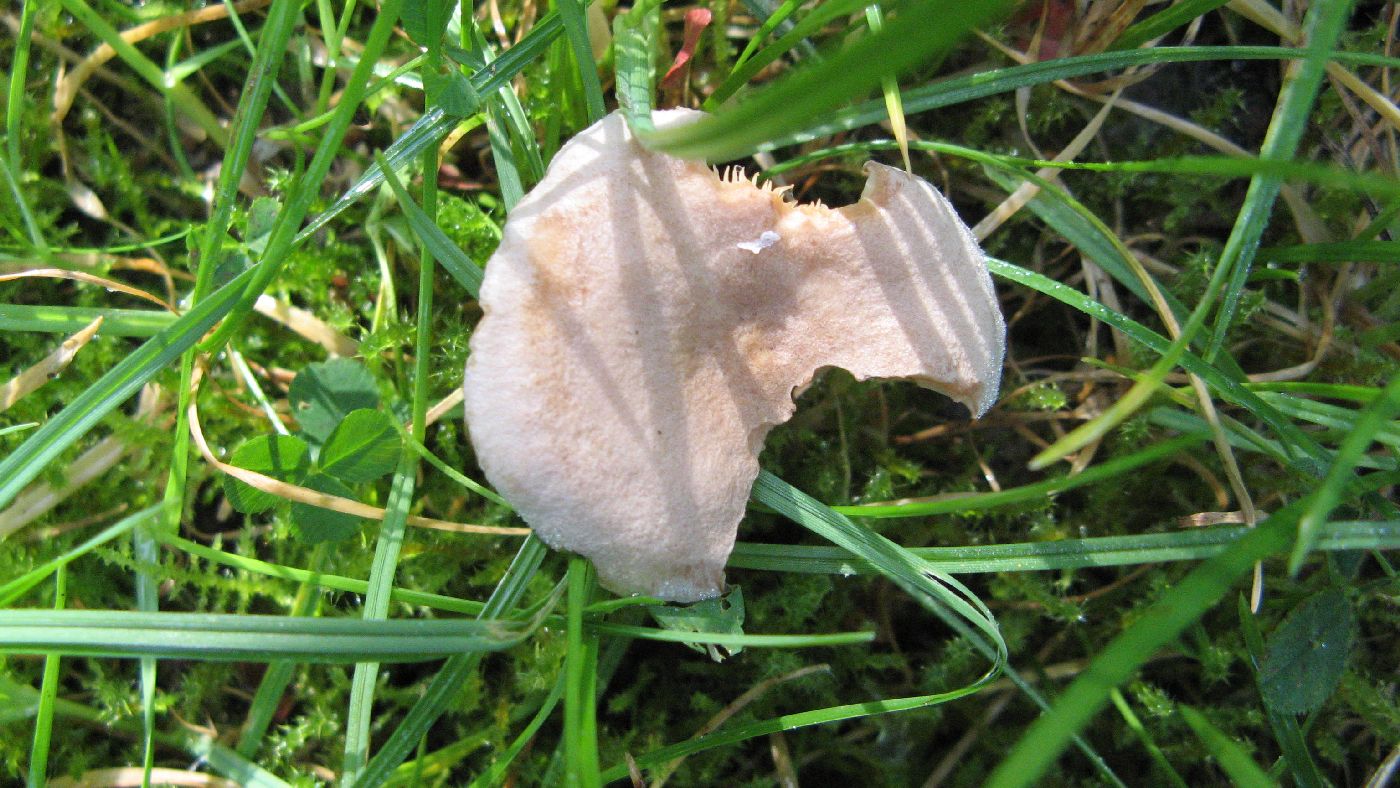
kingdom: Fungi
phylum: Basidiomycota
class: Agaricomycetes
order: Russulales
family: Russulaceae
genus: Lactarius
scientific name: Lactarius vietus
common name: violetgrå mælkehat
